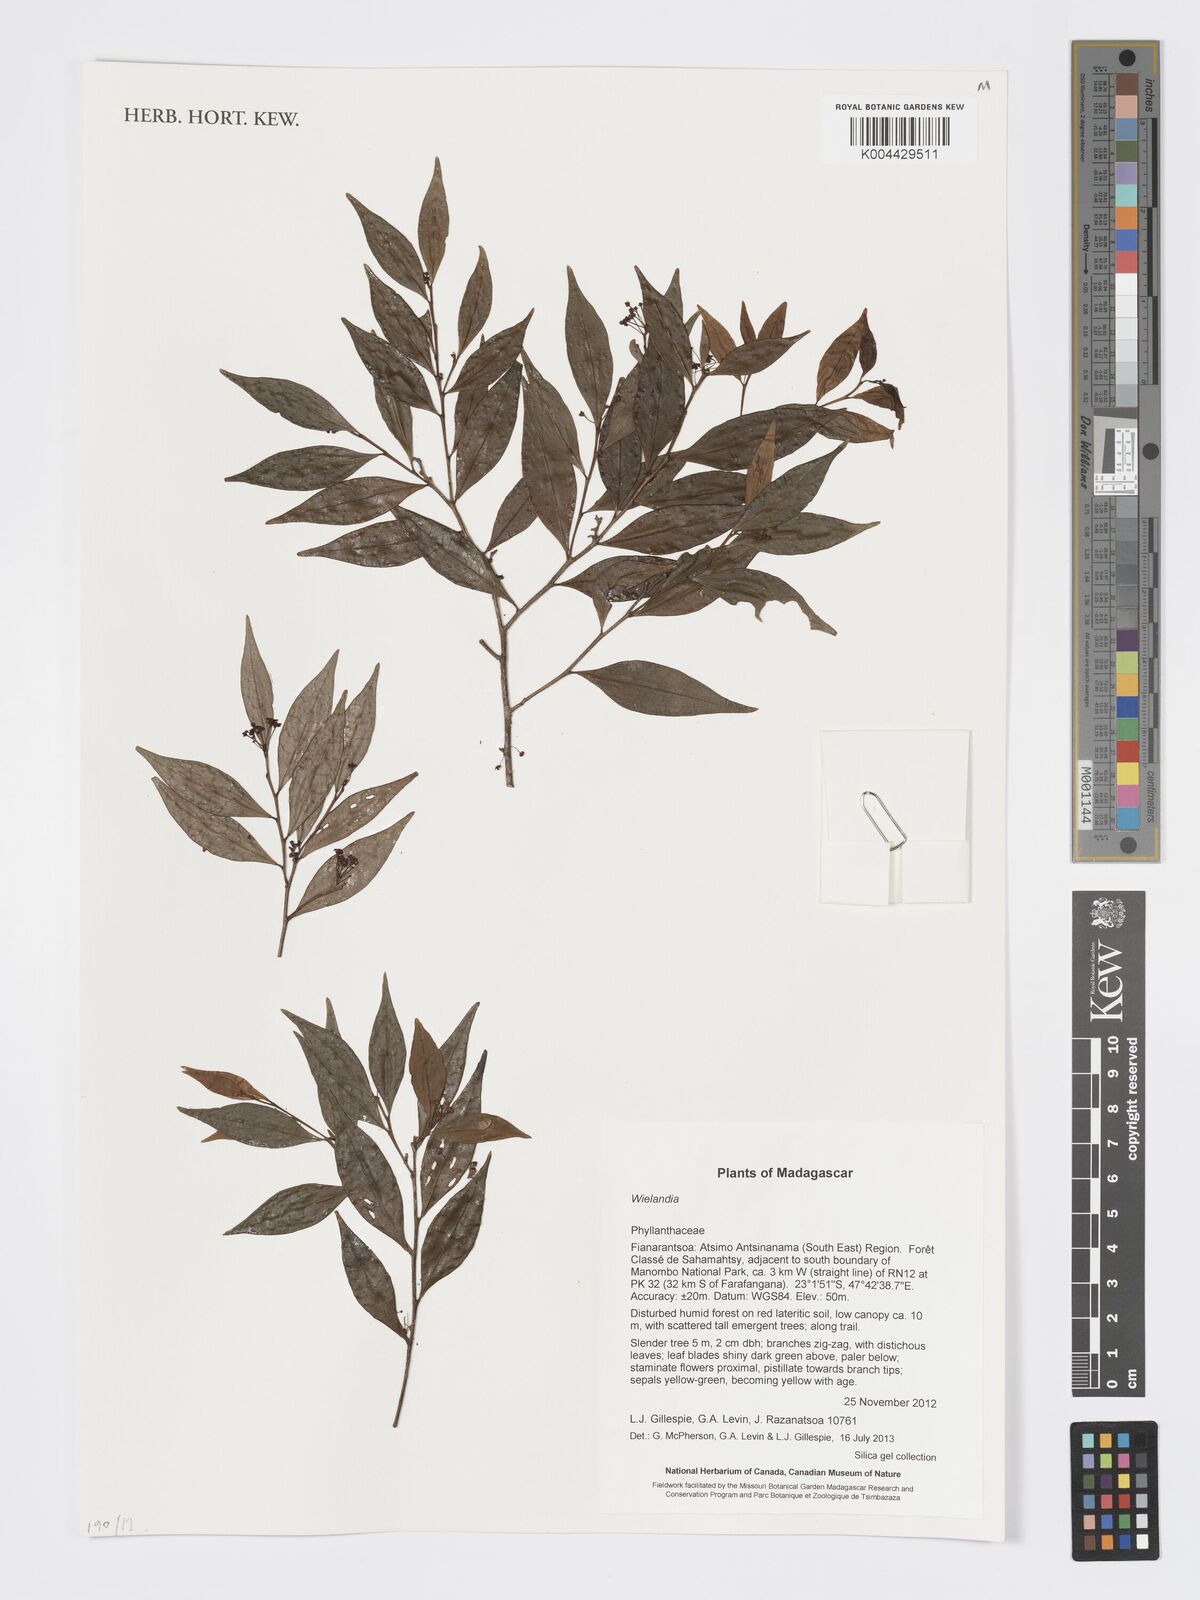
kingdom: Plantae
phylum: Tracheophyta
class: Magnoliopsida
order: Malpighiales
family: Phyllanthaceae
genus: Wielandia
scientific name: Wielandia
